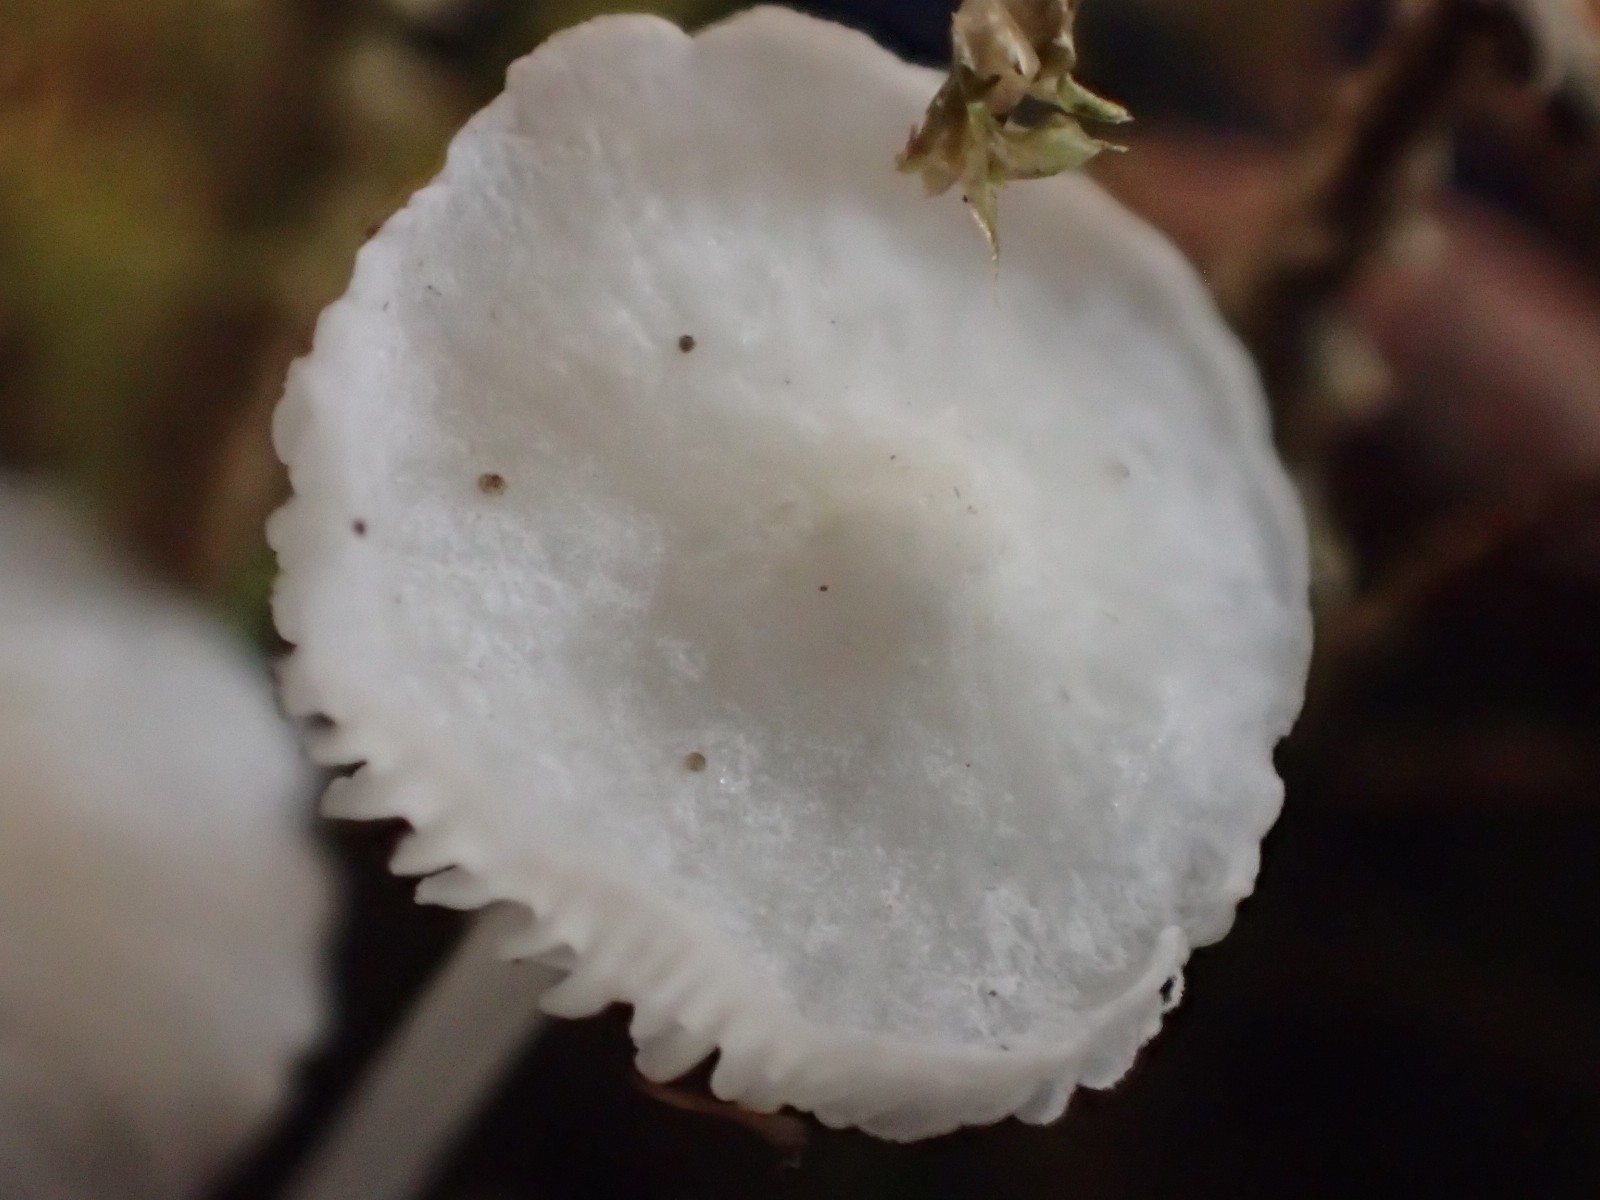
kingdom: Fungi
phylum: Basidiomycota
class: Agaricomycetes
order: Agaricales
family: Mycenaceae
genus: Hemimycena
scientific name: Hemimycena lactea
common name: mælkehvid huesvamp
